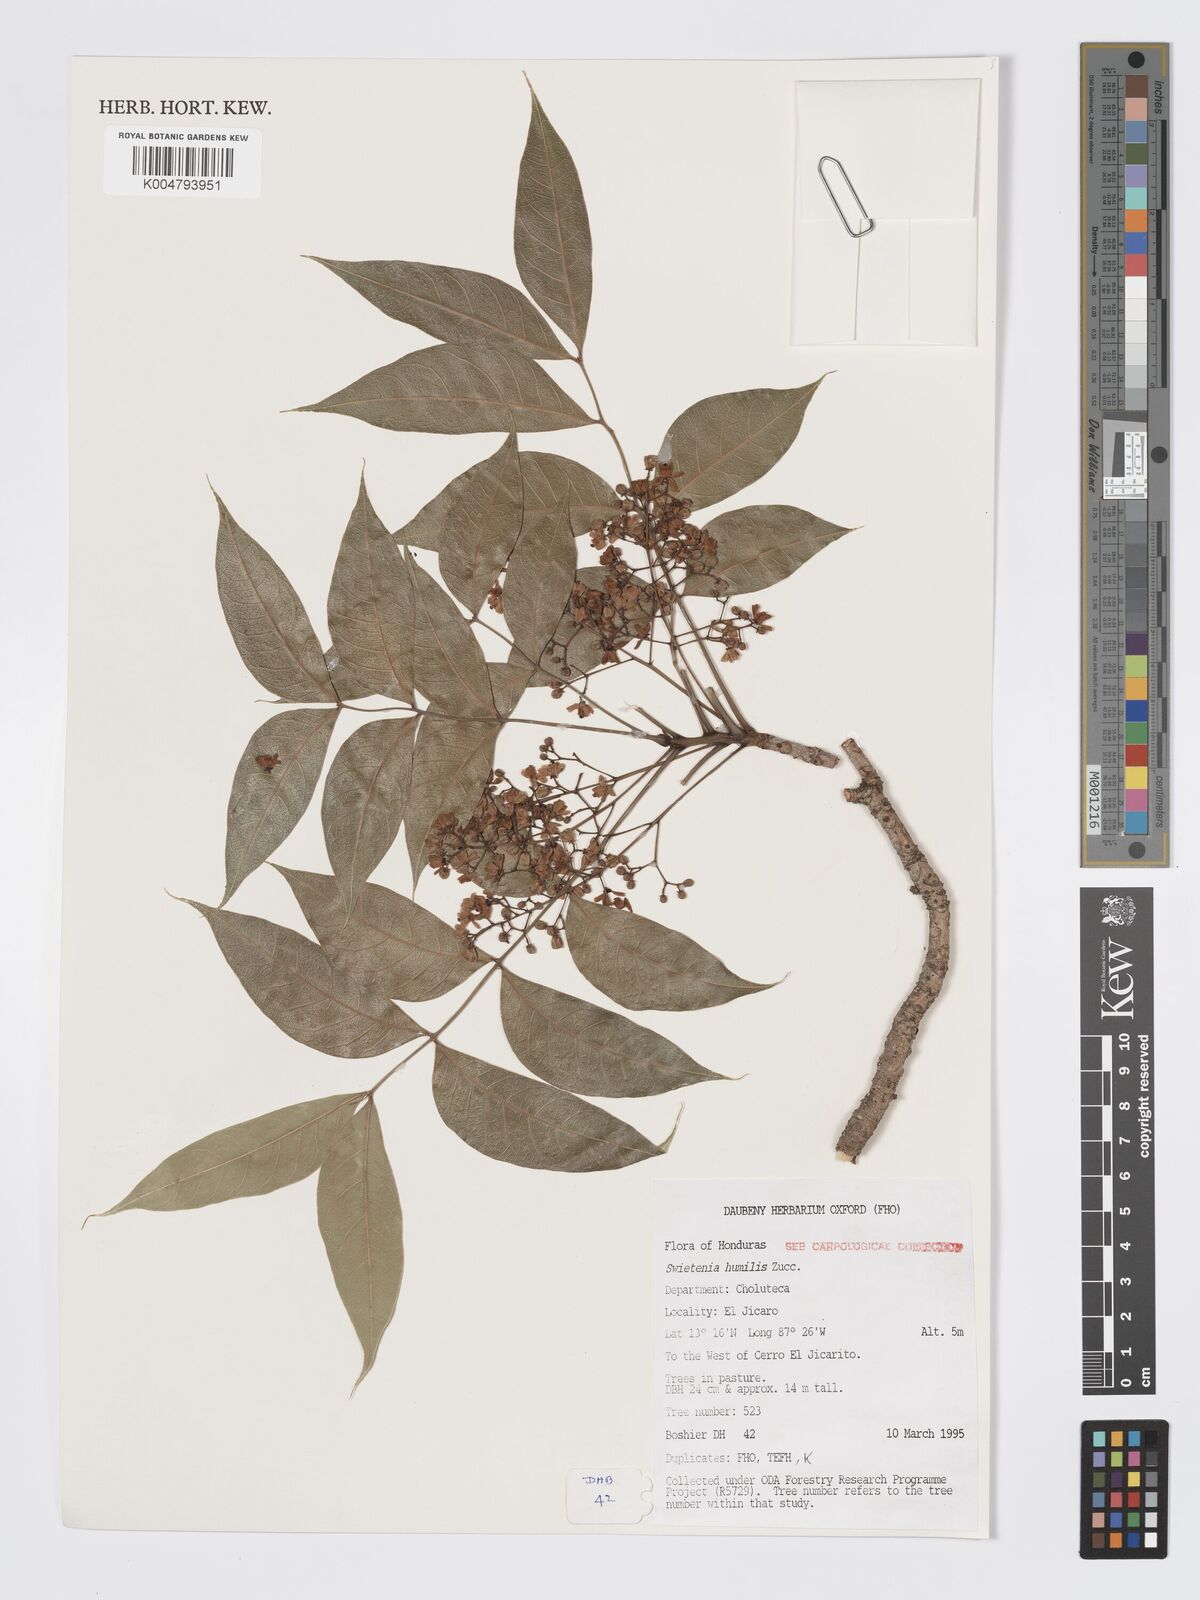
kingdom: Plantae
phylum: Tracheophyta
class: Magnoliopsida
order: Sapindales
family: Meliaceae
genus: Swietenia
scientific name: Swietenia humilis
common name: Pacific coast mahogany
